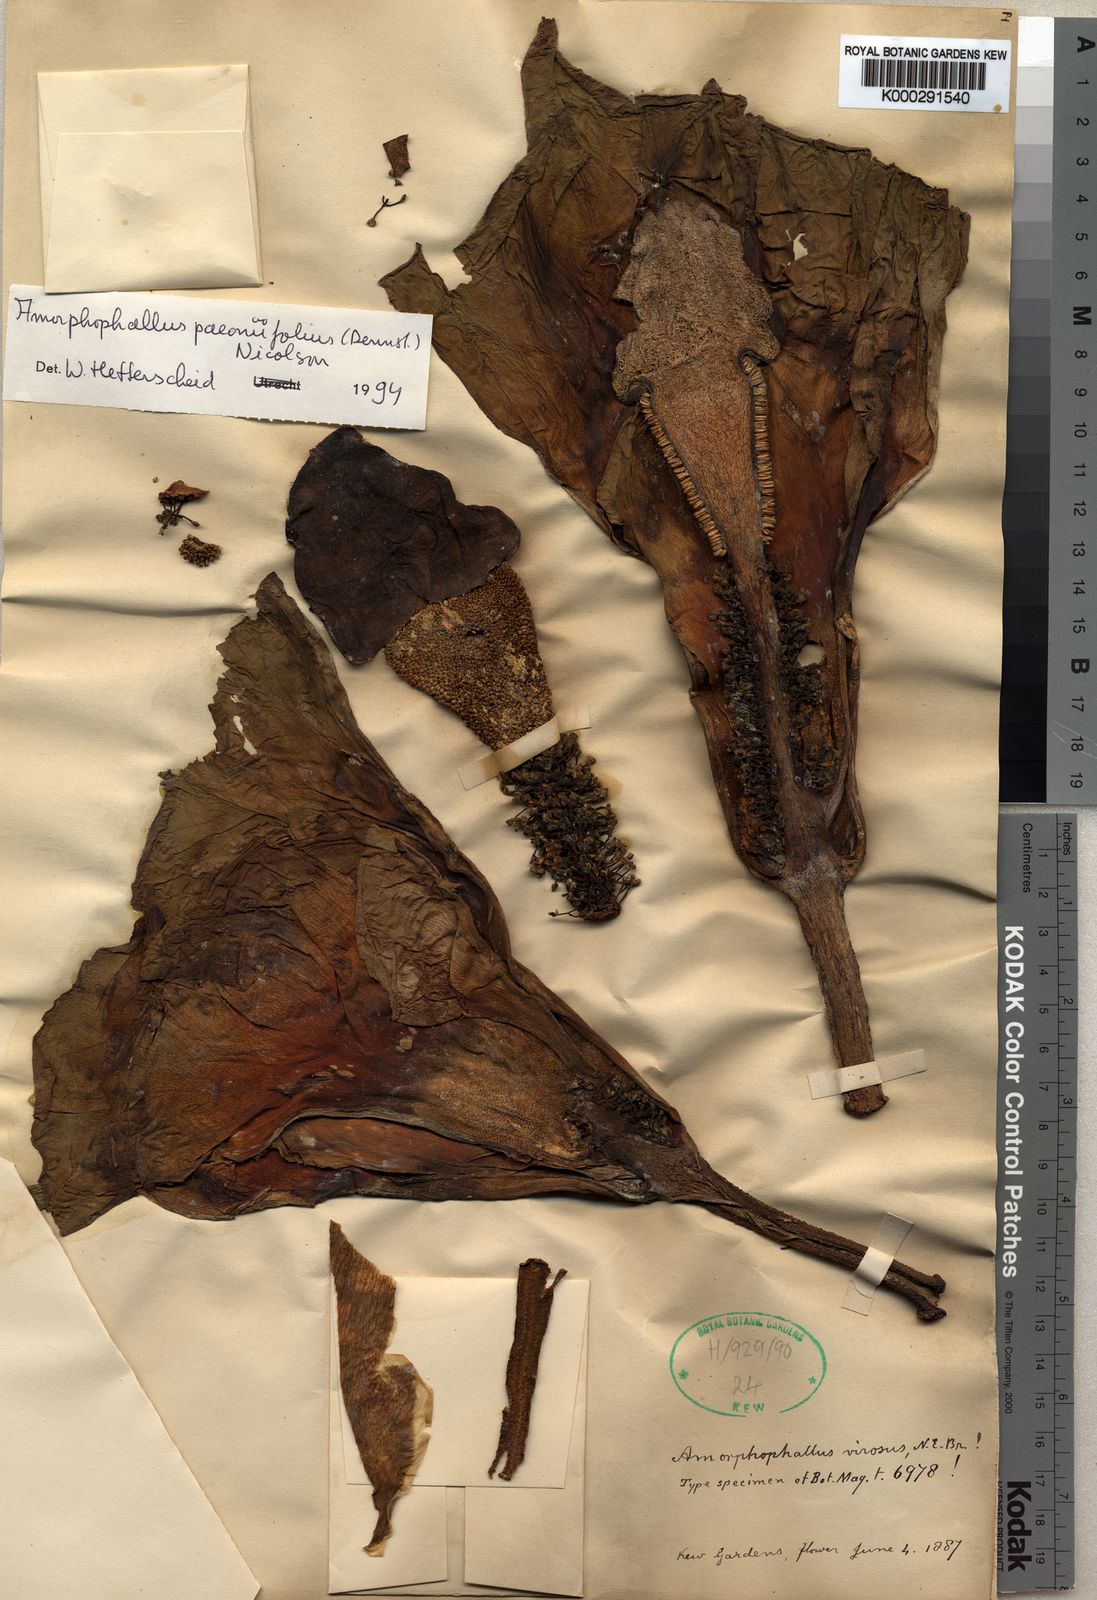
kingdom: Plantae
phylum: Tracheophyta
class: Liliopsida
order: Alismatales
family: Araceae
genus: Amorphophallus
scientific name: Amorphophallus paeoniifolius
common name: Telinga-potato
